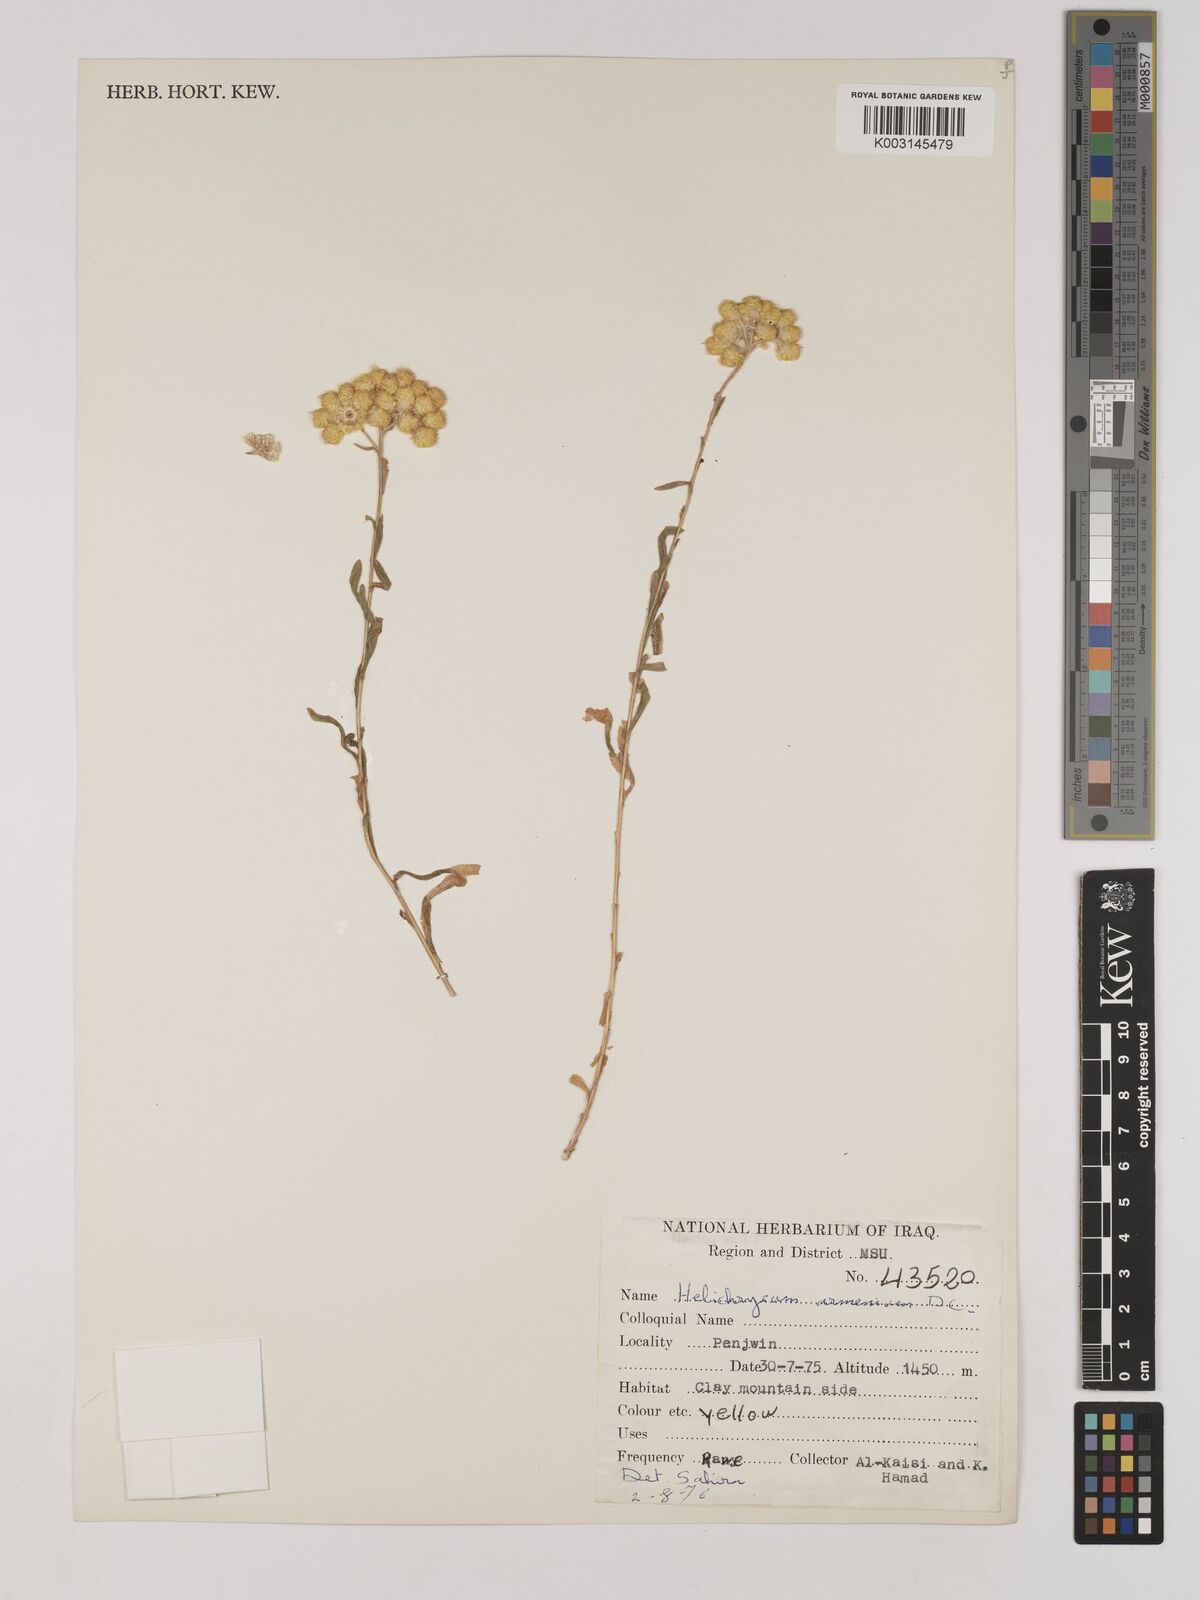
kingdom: Plantae
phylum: Tracheophyta
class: Magnoliopsida
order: Asterales
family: Asteraceae
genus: Helichrysum
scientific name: Helichrysum armenium
